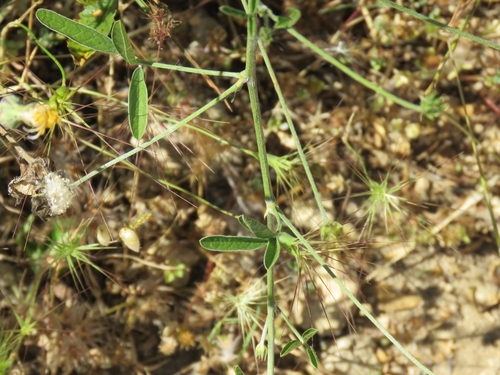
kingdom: Plantae
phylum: Tracheophyta
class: Magnoliopsida
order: Fabales
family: Fabaceae
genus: Bituminaria
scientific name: Bituminaria bituminosa
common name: Arabian pea
